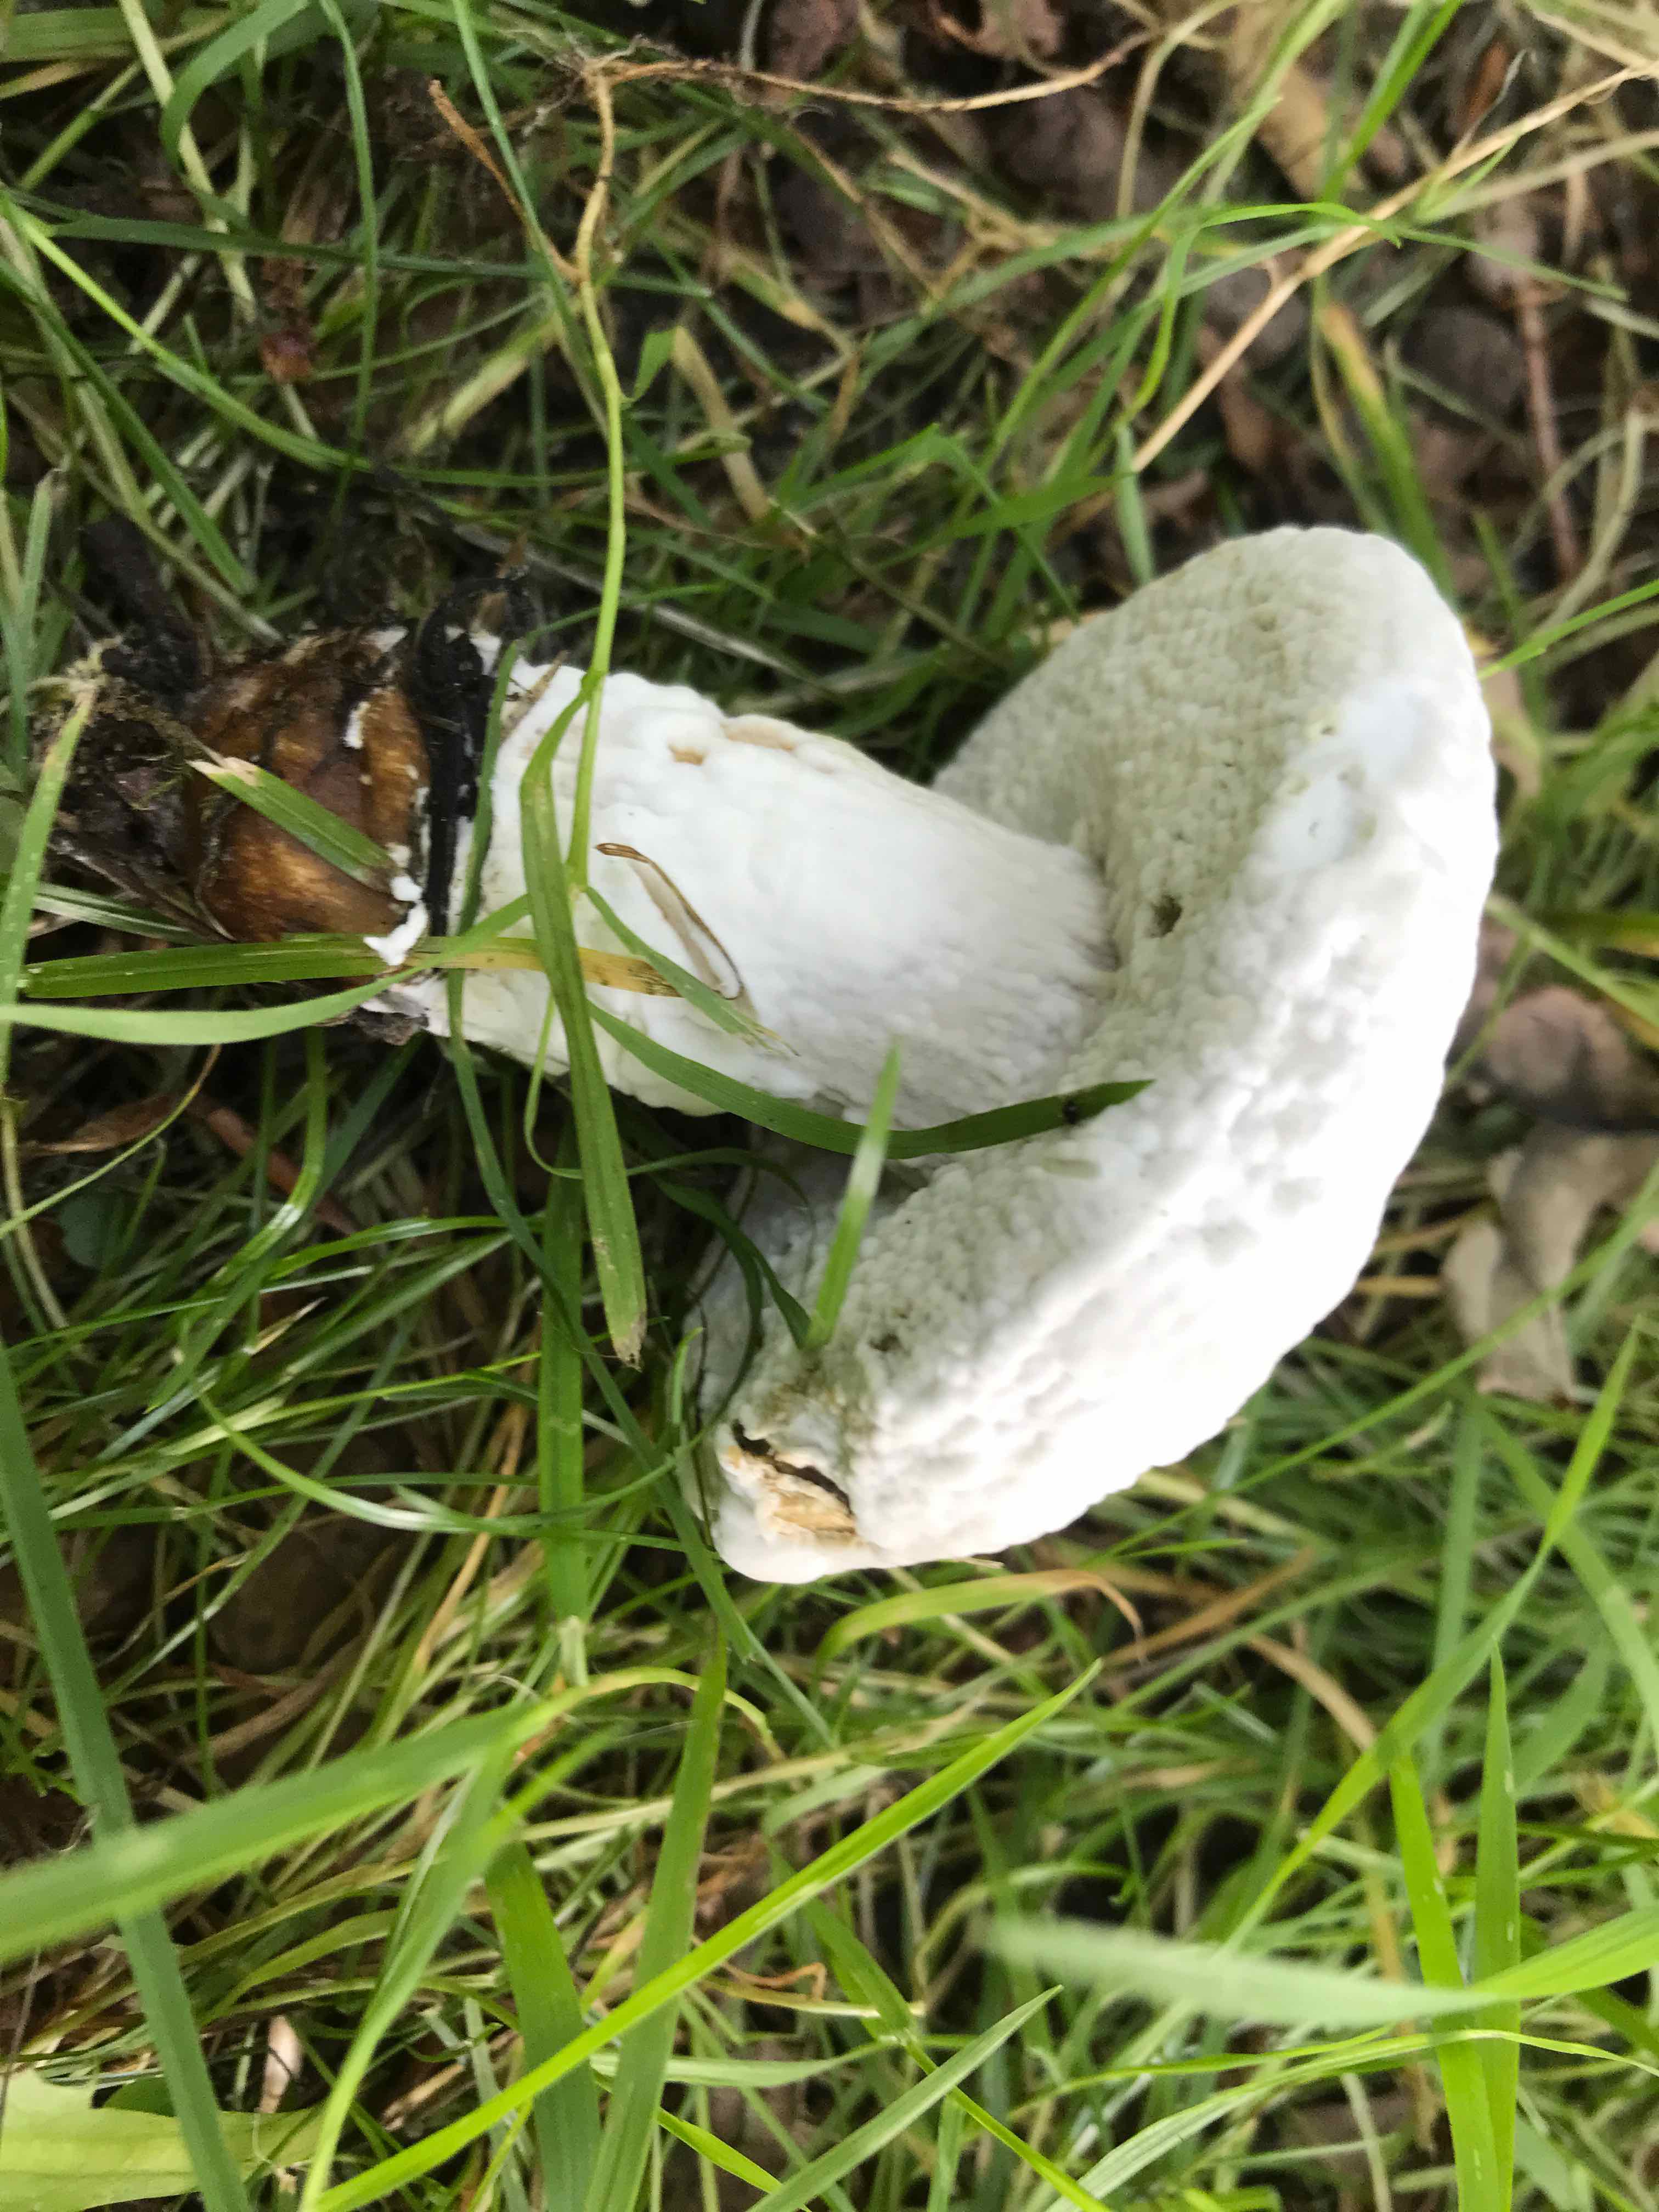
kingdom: Fungi
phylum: Ascomycota
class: Sordariomycetes
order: Hypocreales
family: Hypocreaceae
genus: Hypomyces
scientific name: Hypomyces microspermus
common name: dværgrørhat-snylteskorpe
